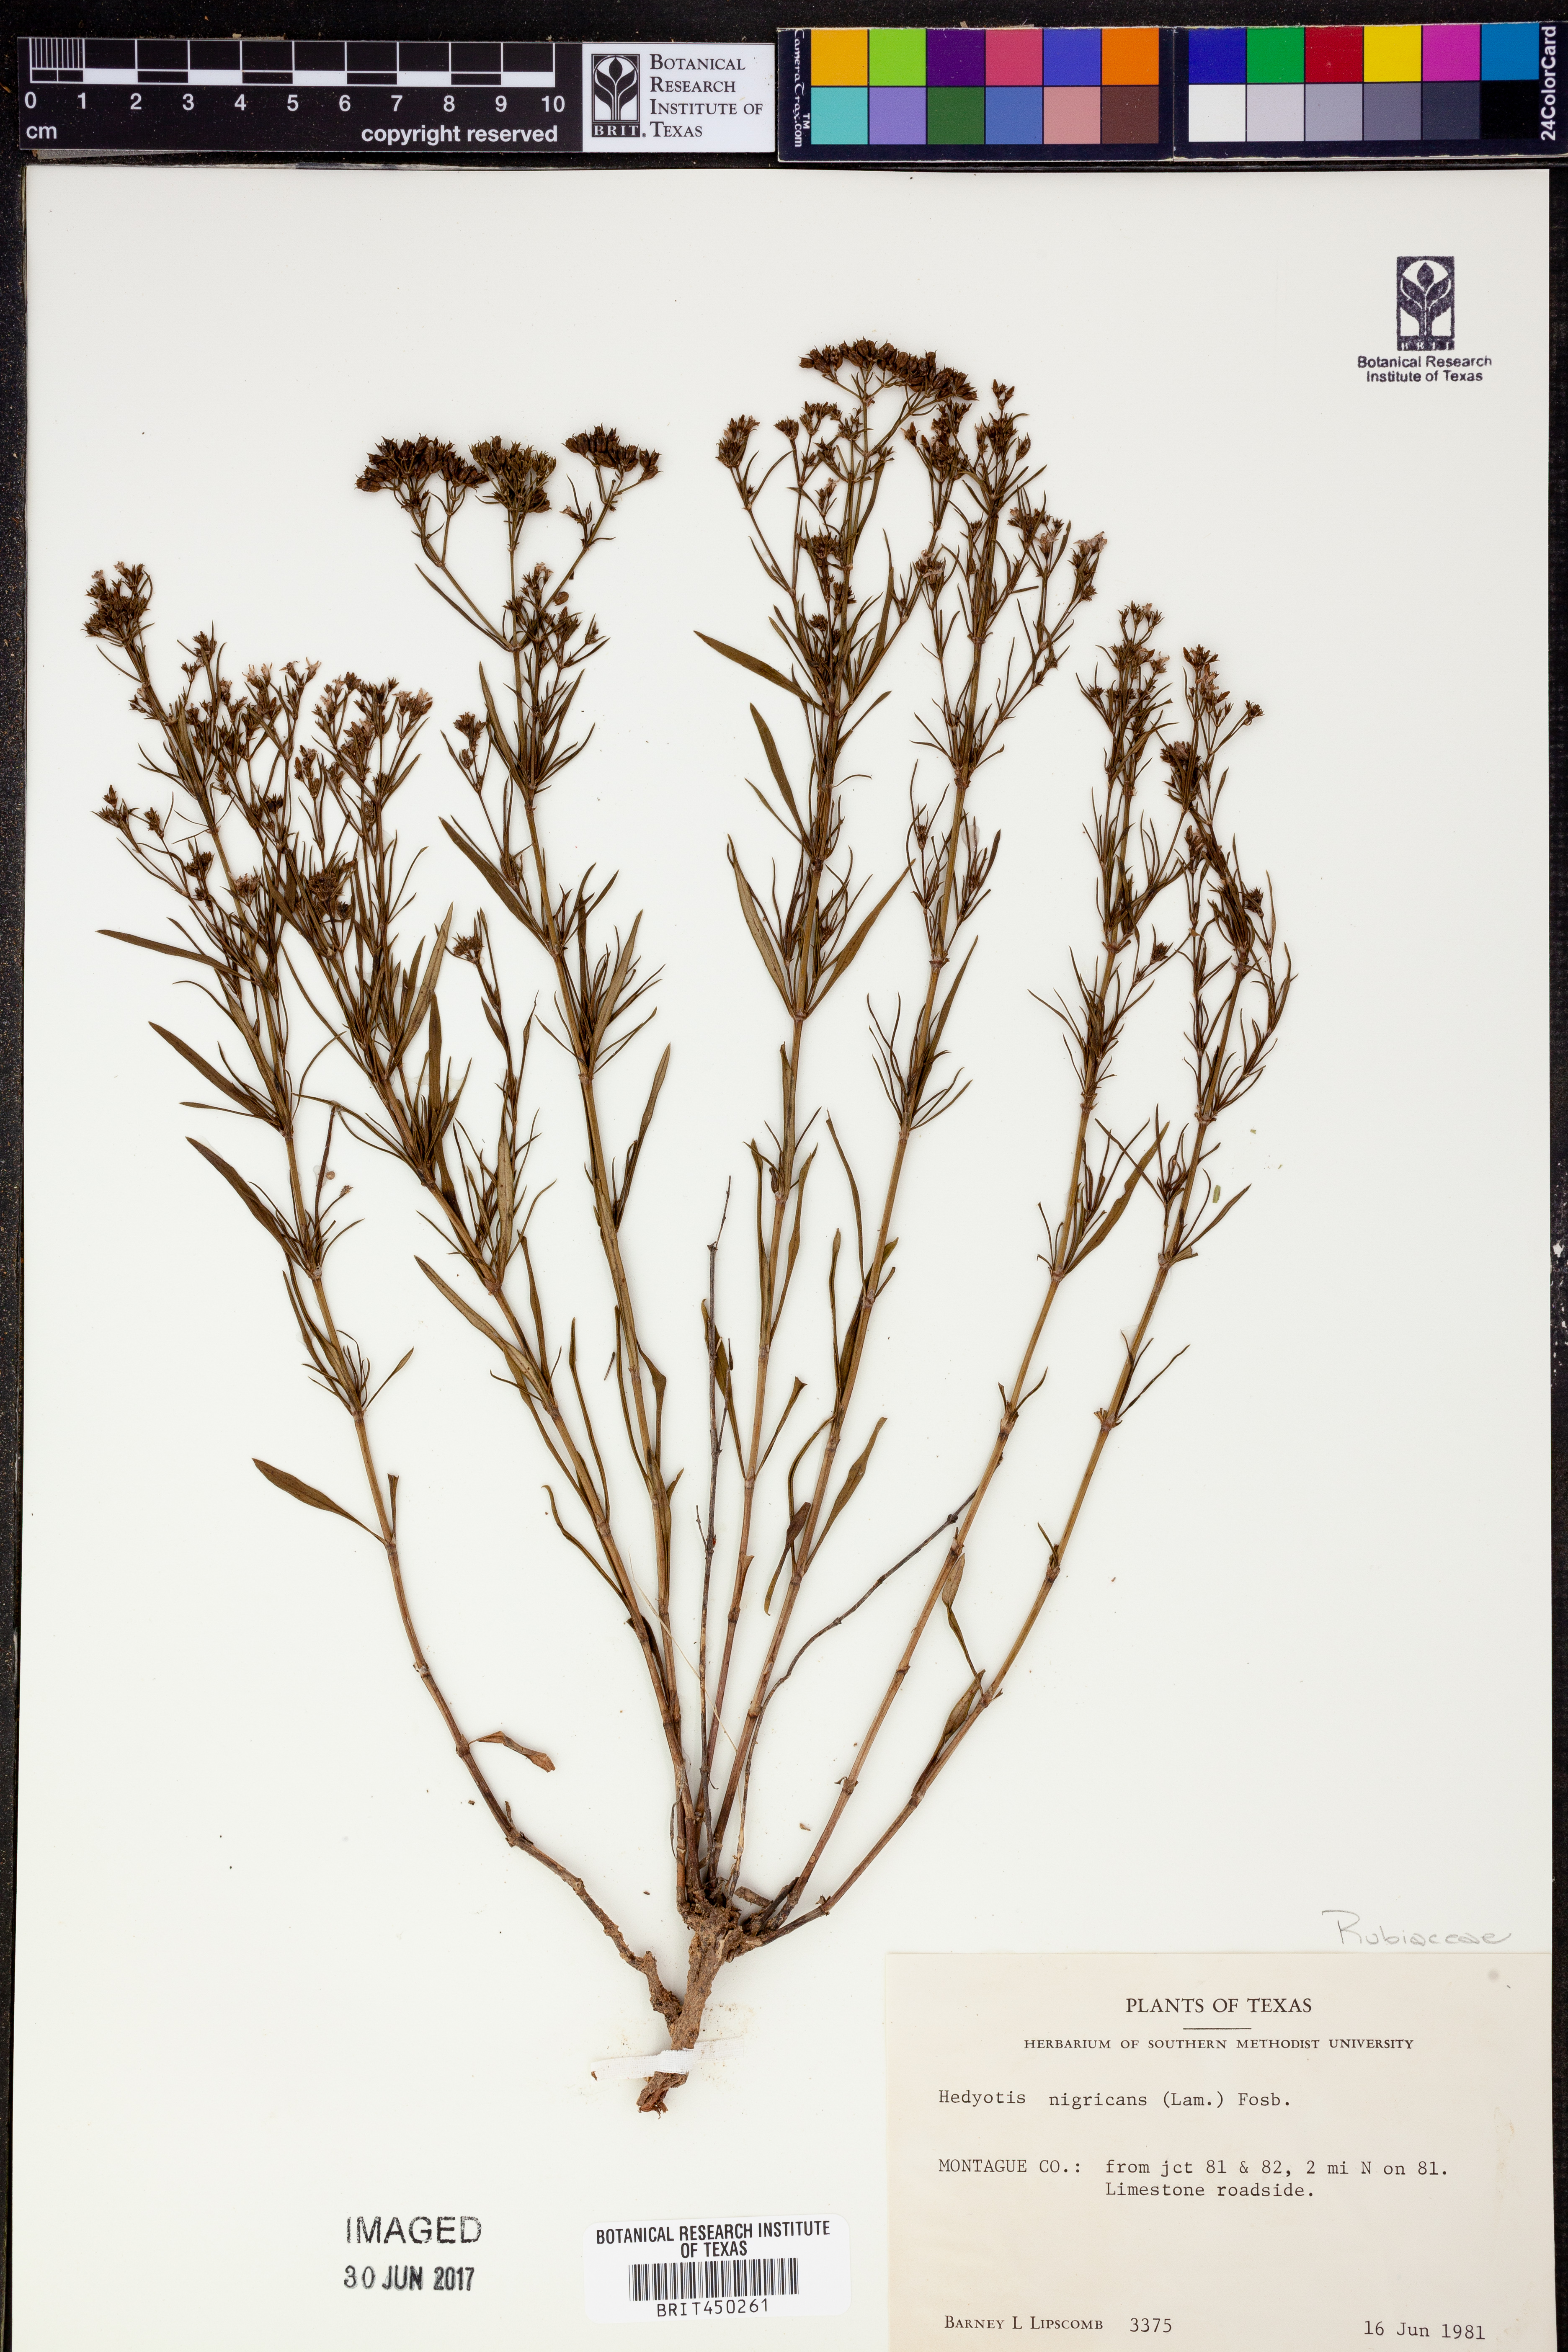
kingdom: Plantae
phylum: Tracheophyta
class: Magnoliopsida
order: Gentianales
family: Rubiaceae
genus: Stenaria
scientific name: Stenaria nigricans
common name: Diamondflowers
